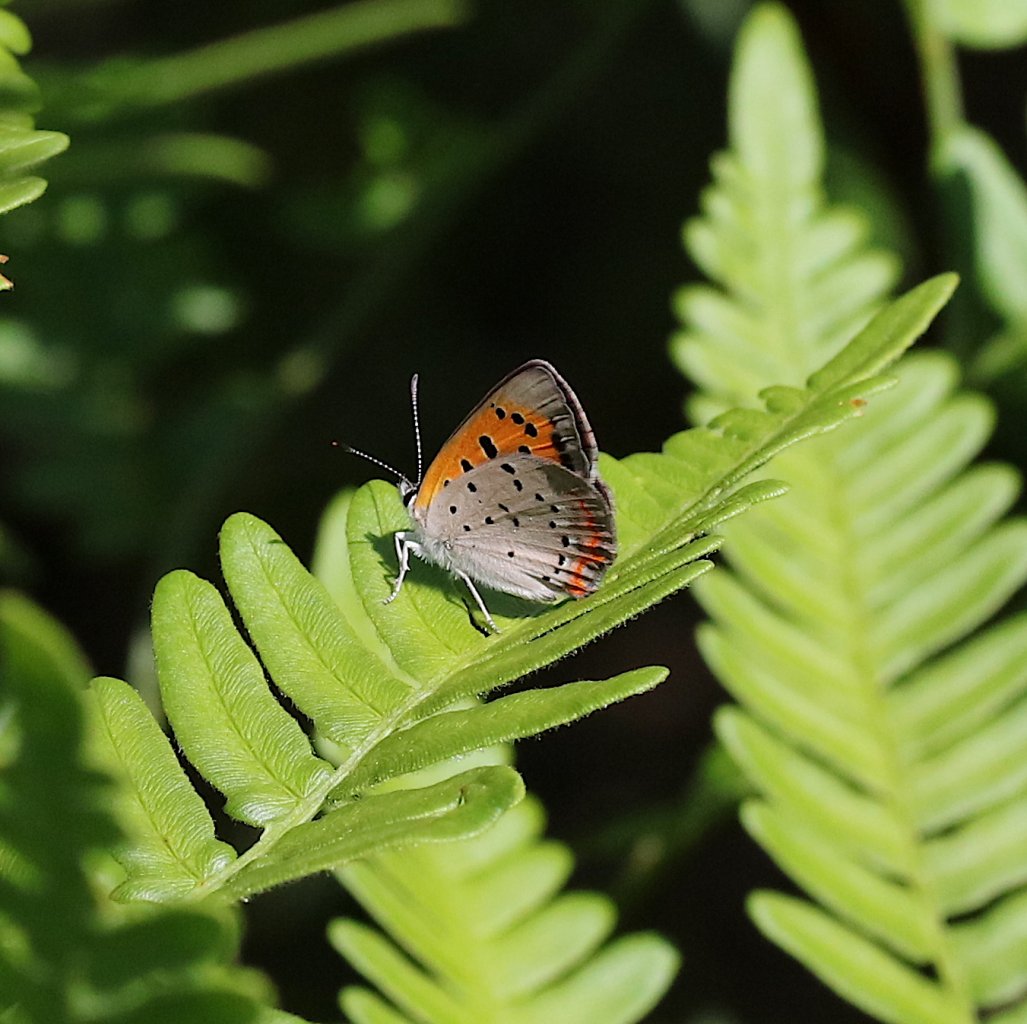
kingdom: Animalia
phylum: Arthropoda
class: Insecta
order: Lepidoptera
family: Lycaenidae
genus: Lycaena
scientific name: Lycaena phlaeas
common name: American Copper
